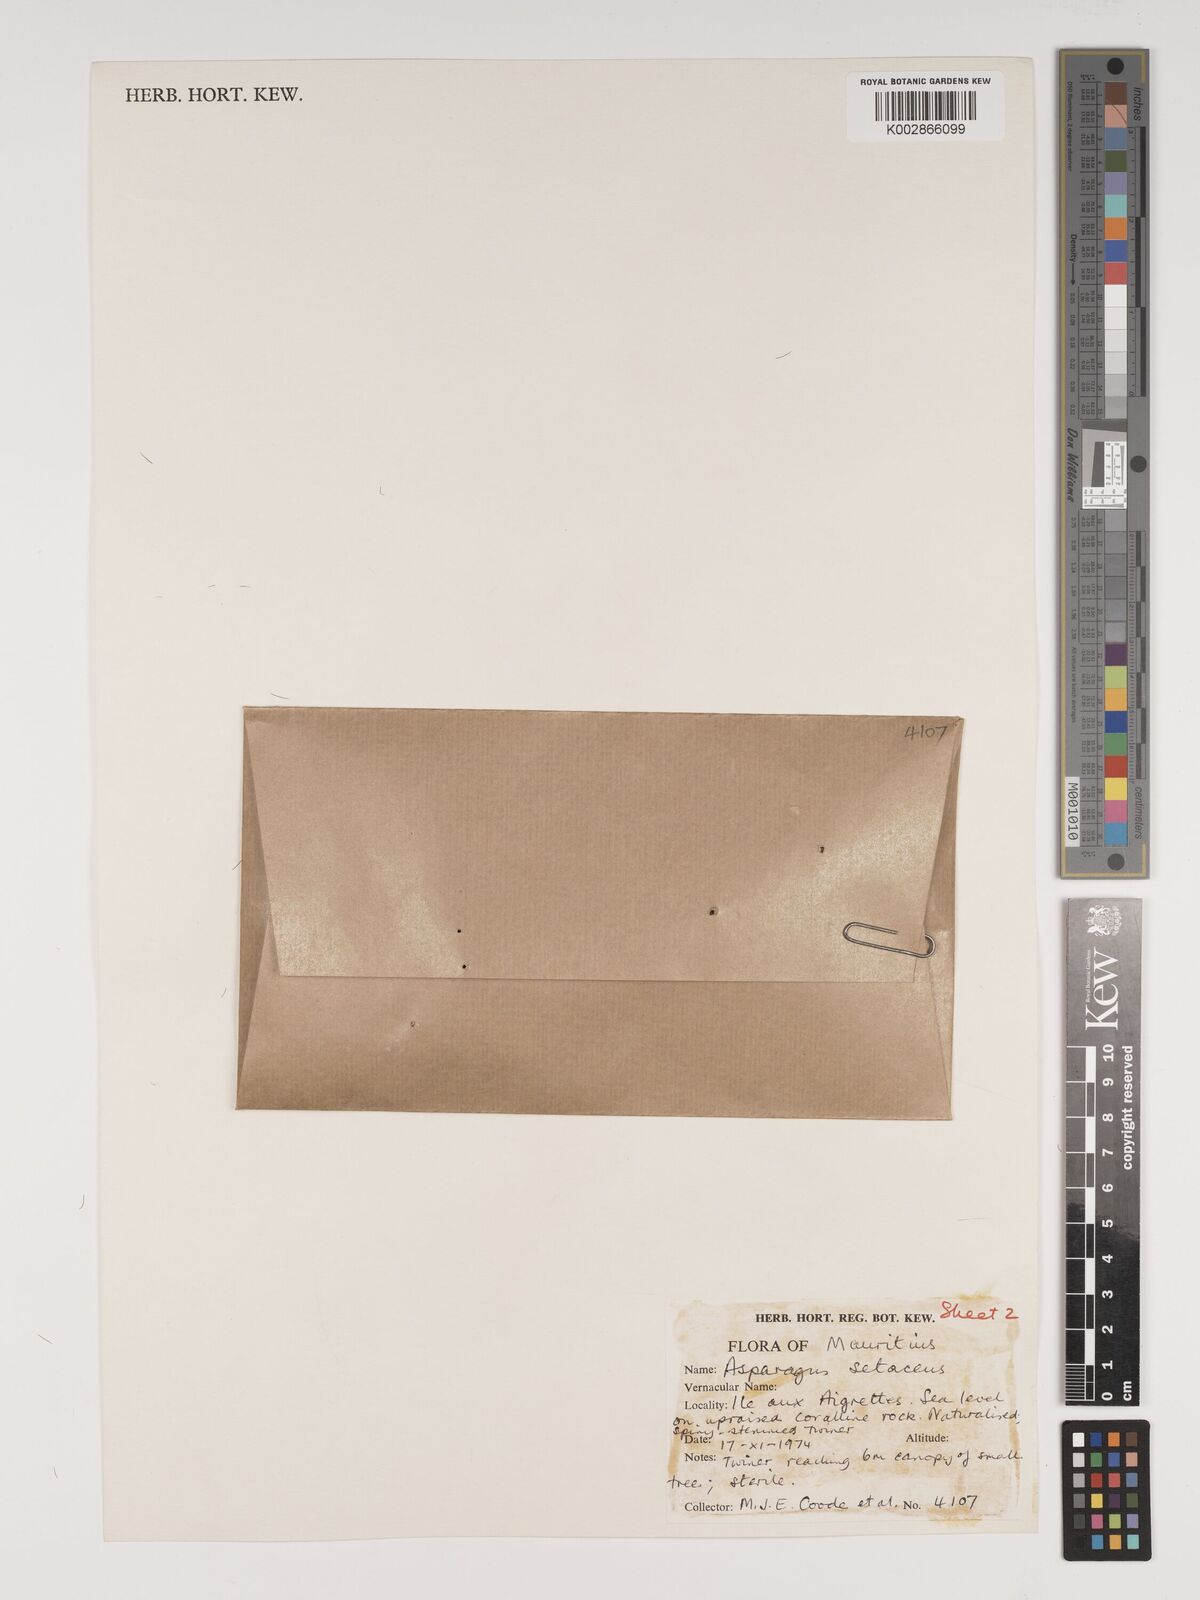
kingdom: Plantae
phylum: Tracheophyta
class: Liliopsida
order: Asparagales
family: Asparagaceae
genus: Asparagus
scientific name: Asparagus setaceus
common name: Common asparagus fern
